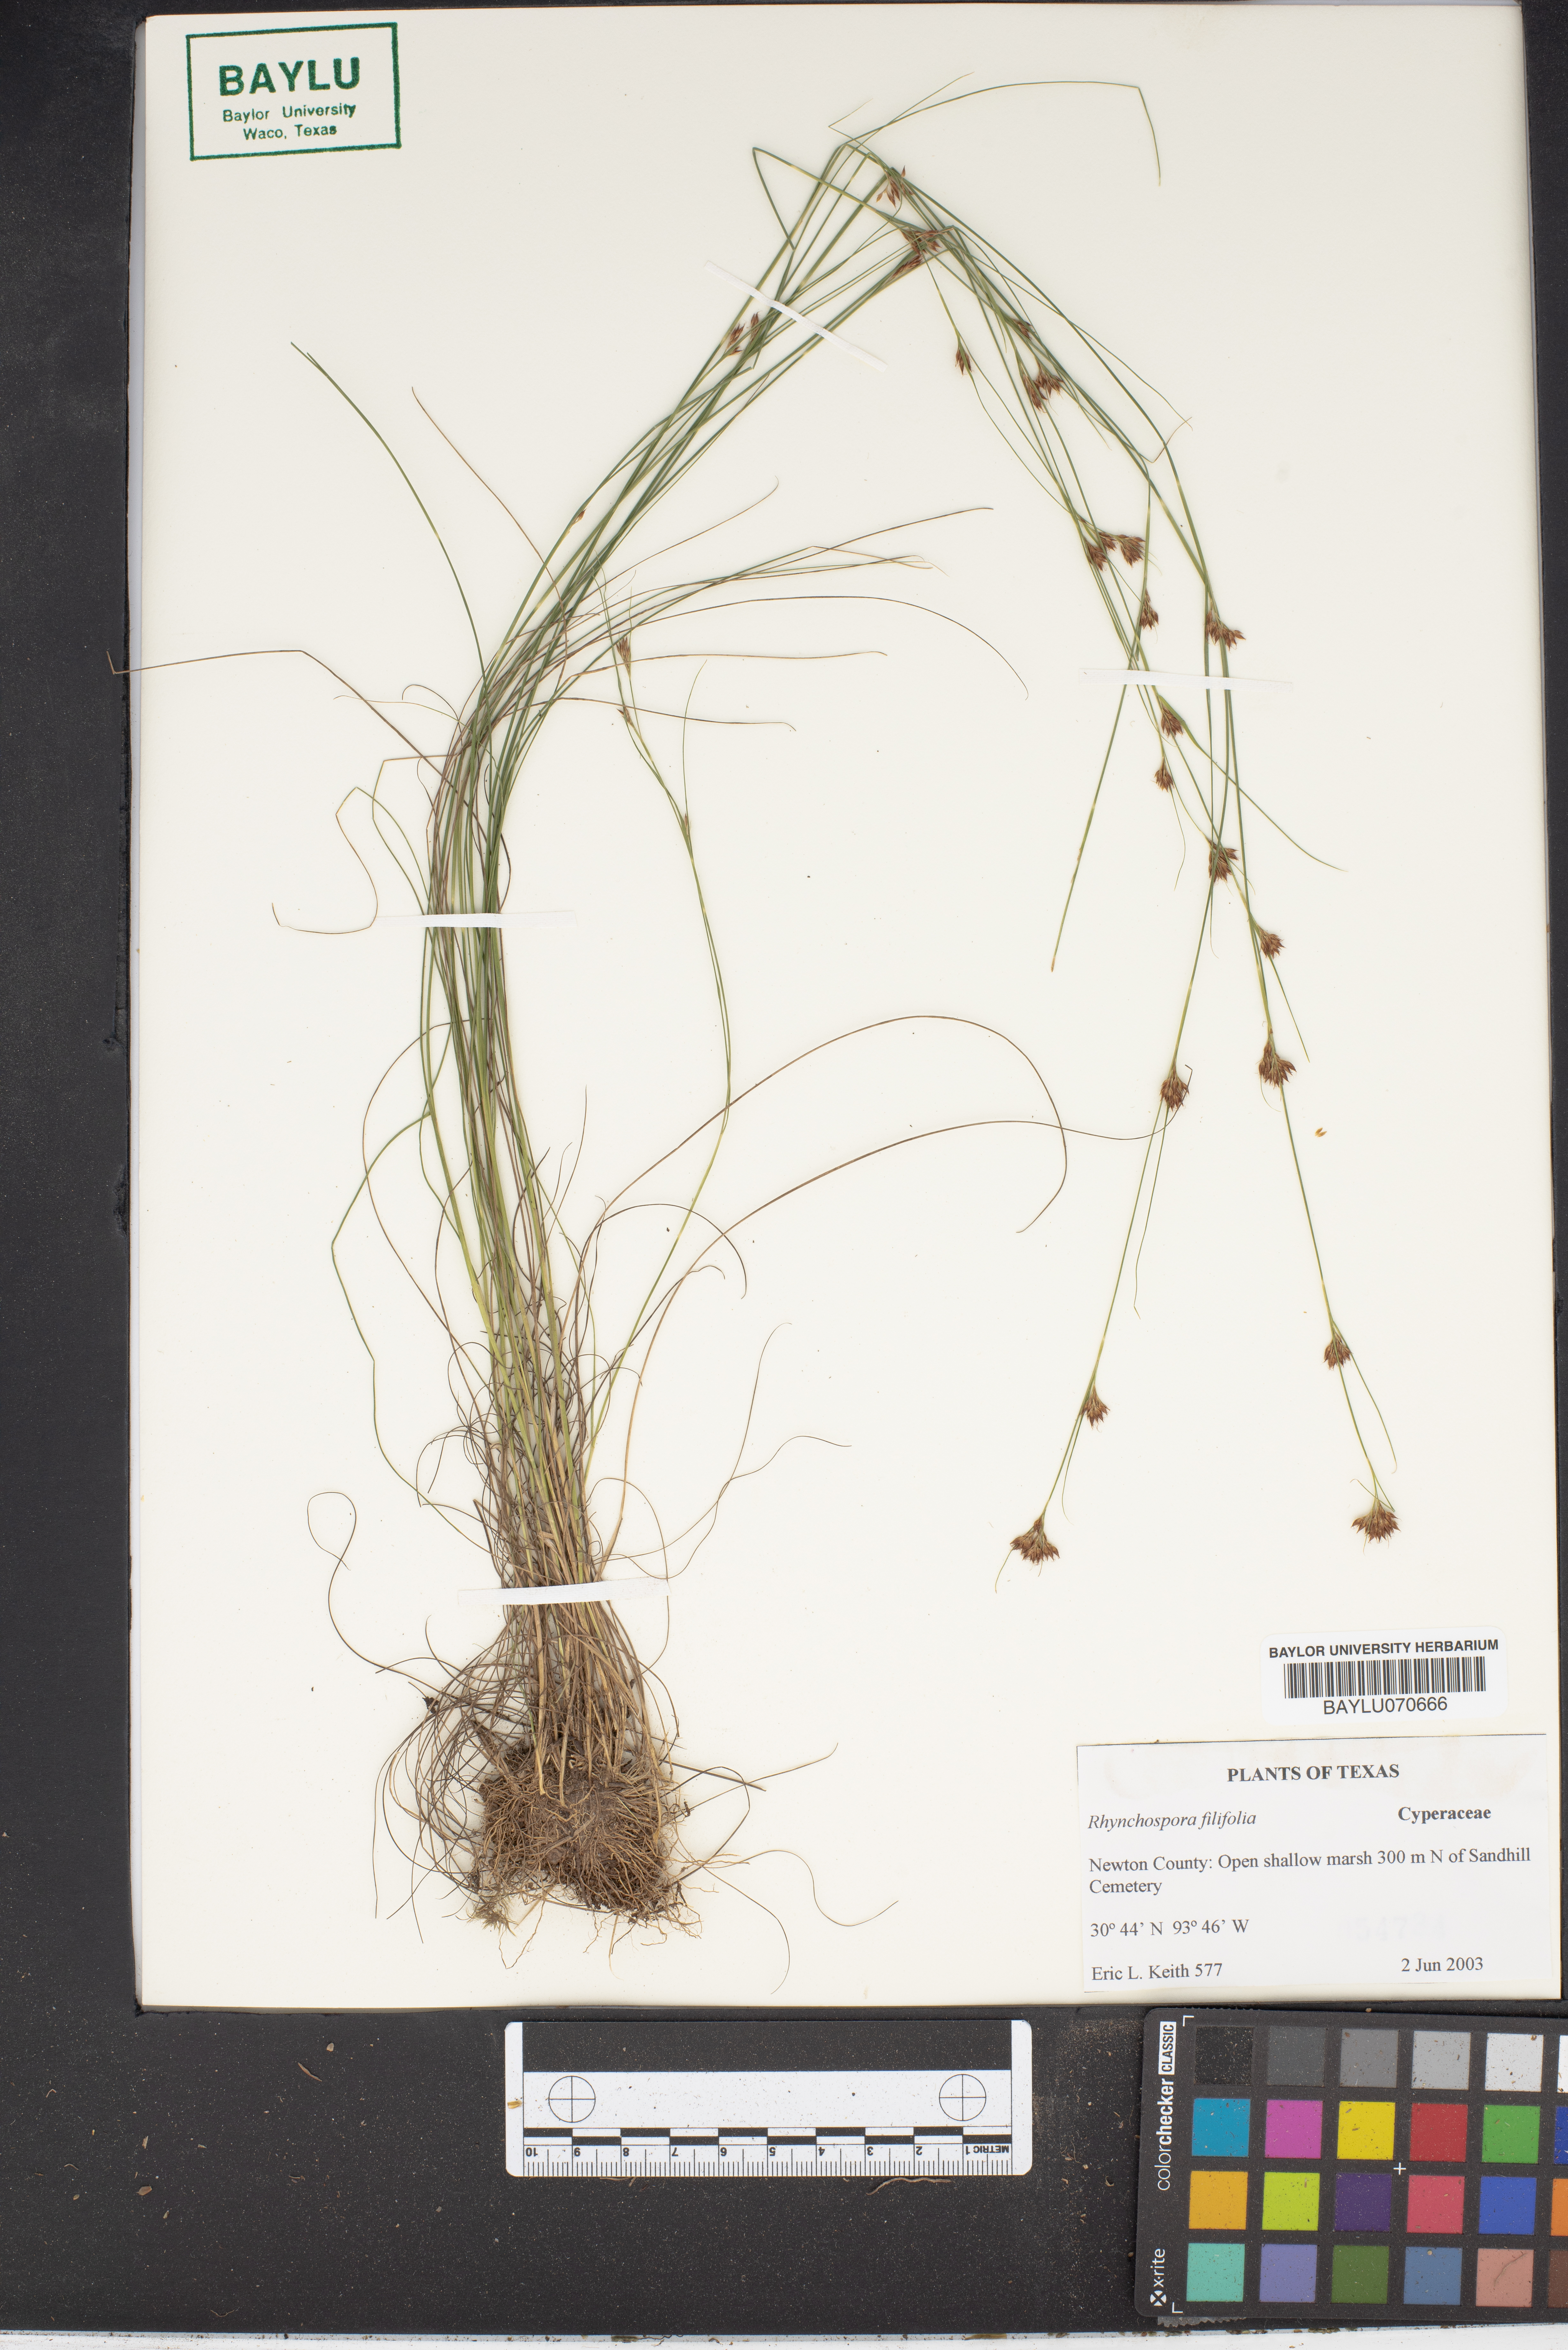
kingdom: Plantae
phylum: Tracheophyta
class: Liliopsida
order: Poales
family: Cyperaceae
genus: Rhynchospora
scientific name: Rhynchospora filifolia
